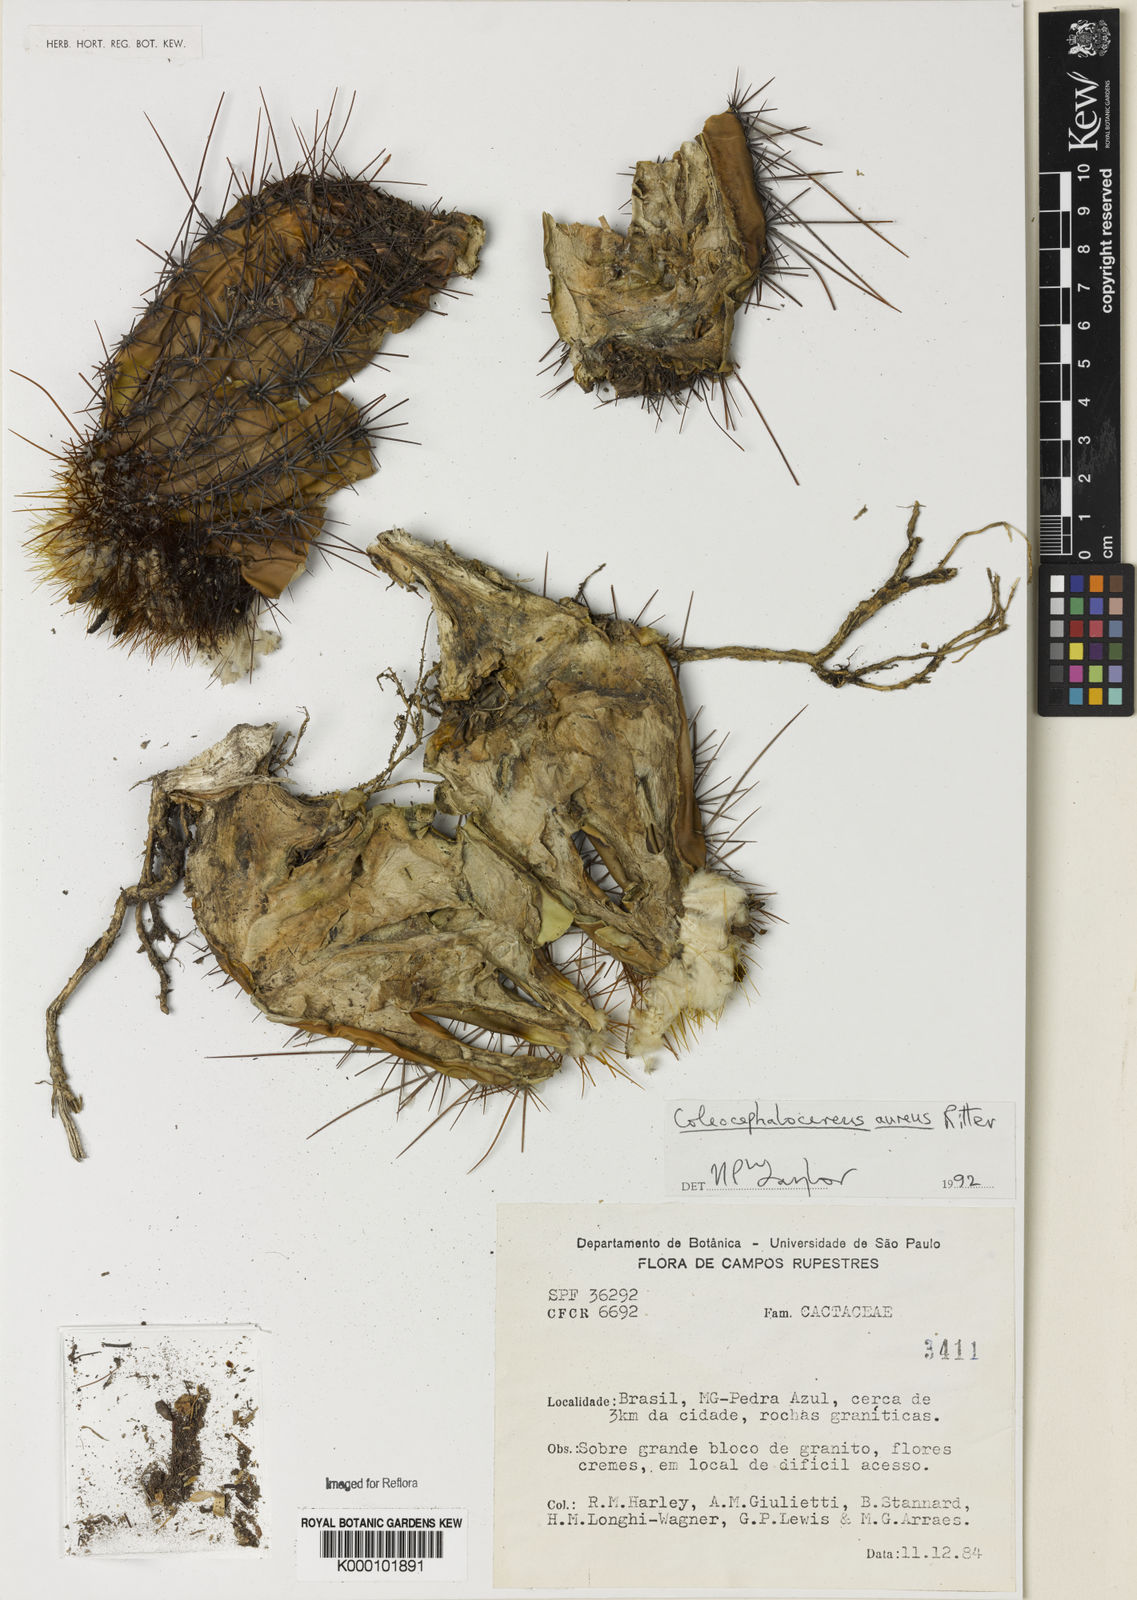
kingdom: Plantae
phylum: Tracheophyta
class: Magnoliopsida
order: Caryophyllales
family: Cactaceae
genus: Coleocephalocereus
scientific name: Coleocephalocereus aureus
